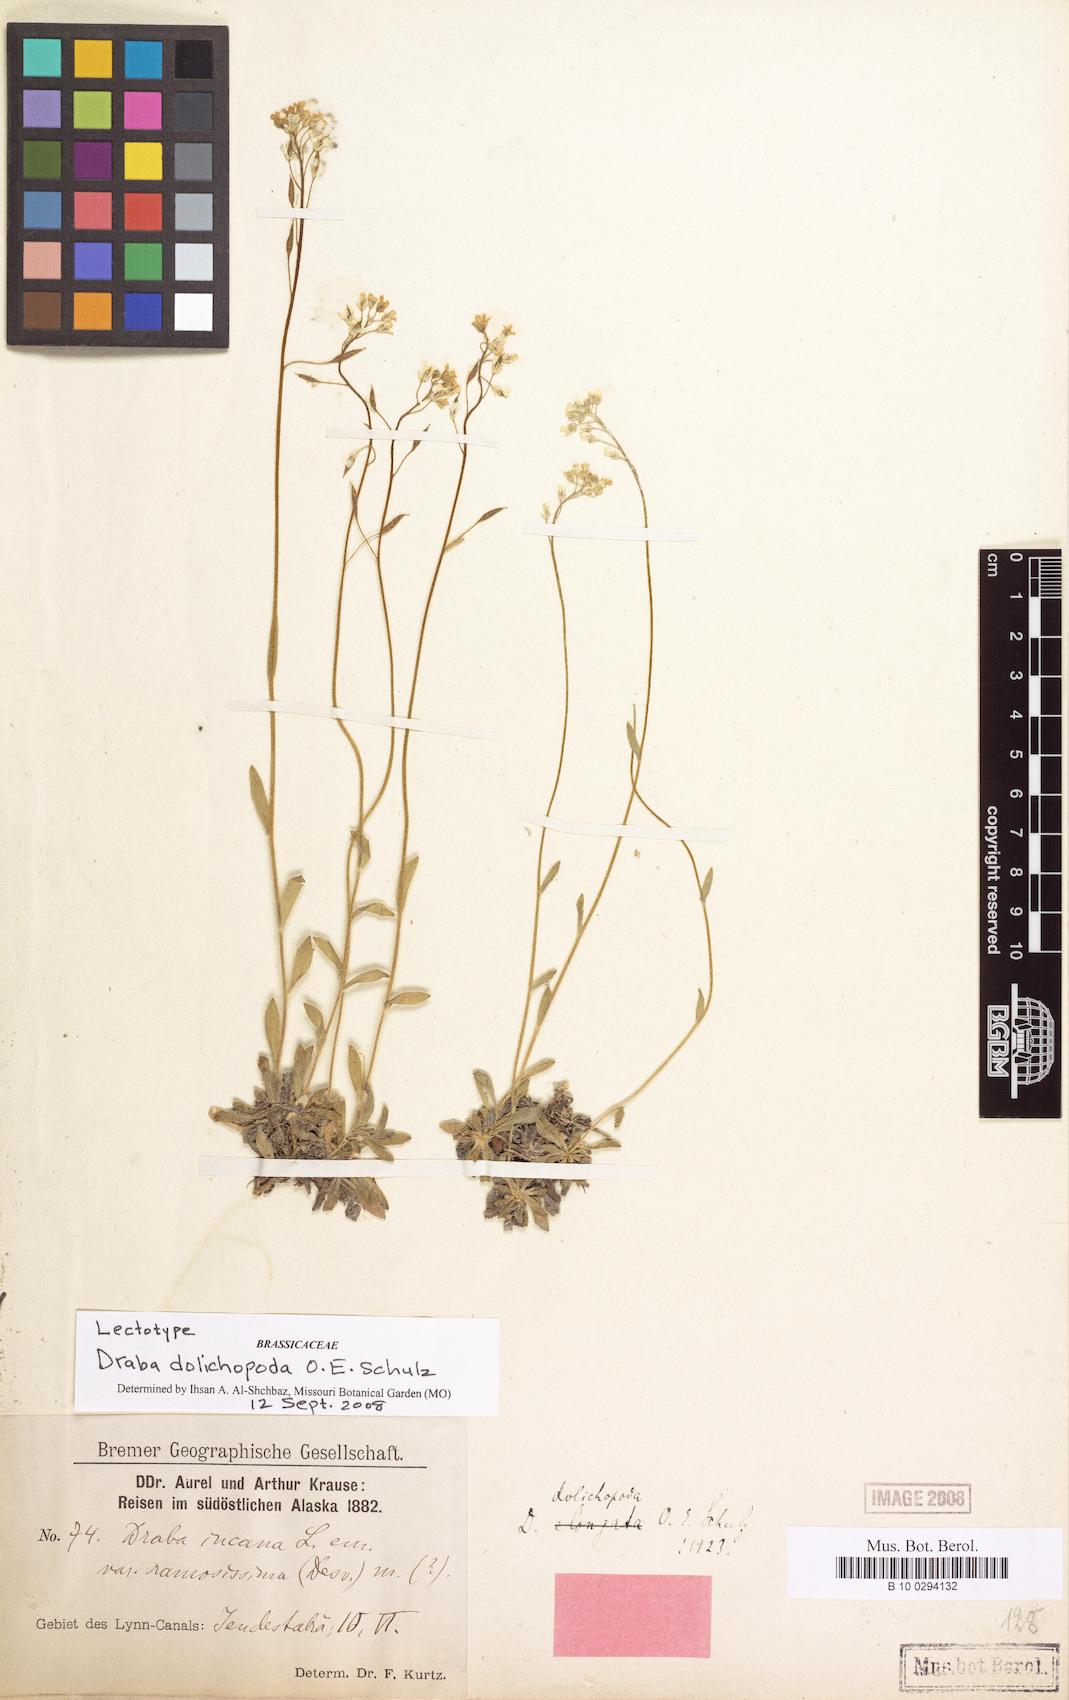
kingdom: Plantae
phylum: Tracheophyta
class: Magnoliopsida
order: Brassicales
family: Brassicaceae
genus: Draba
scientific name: Draba praealta
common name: Tall draba
